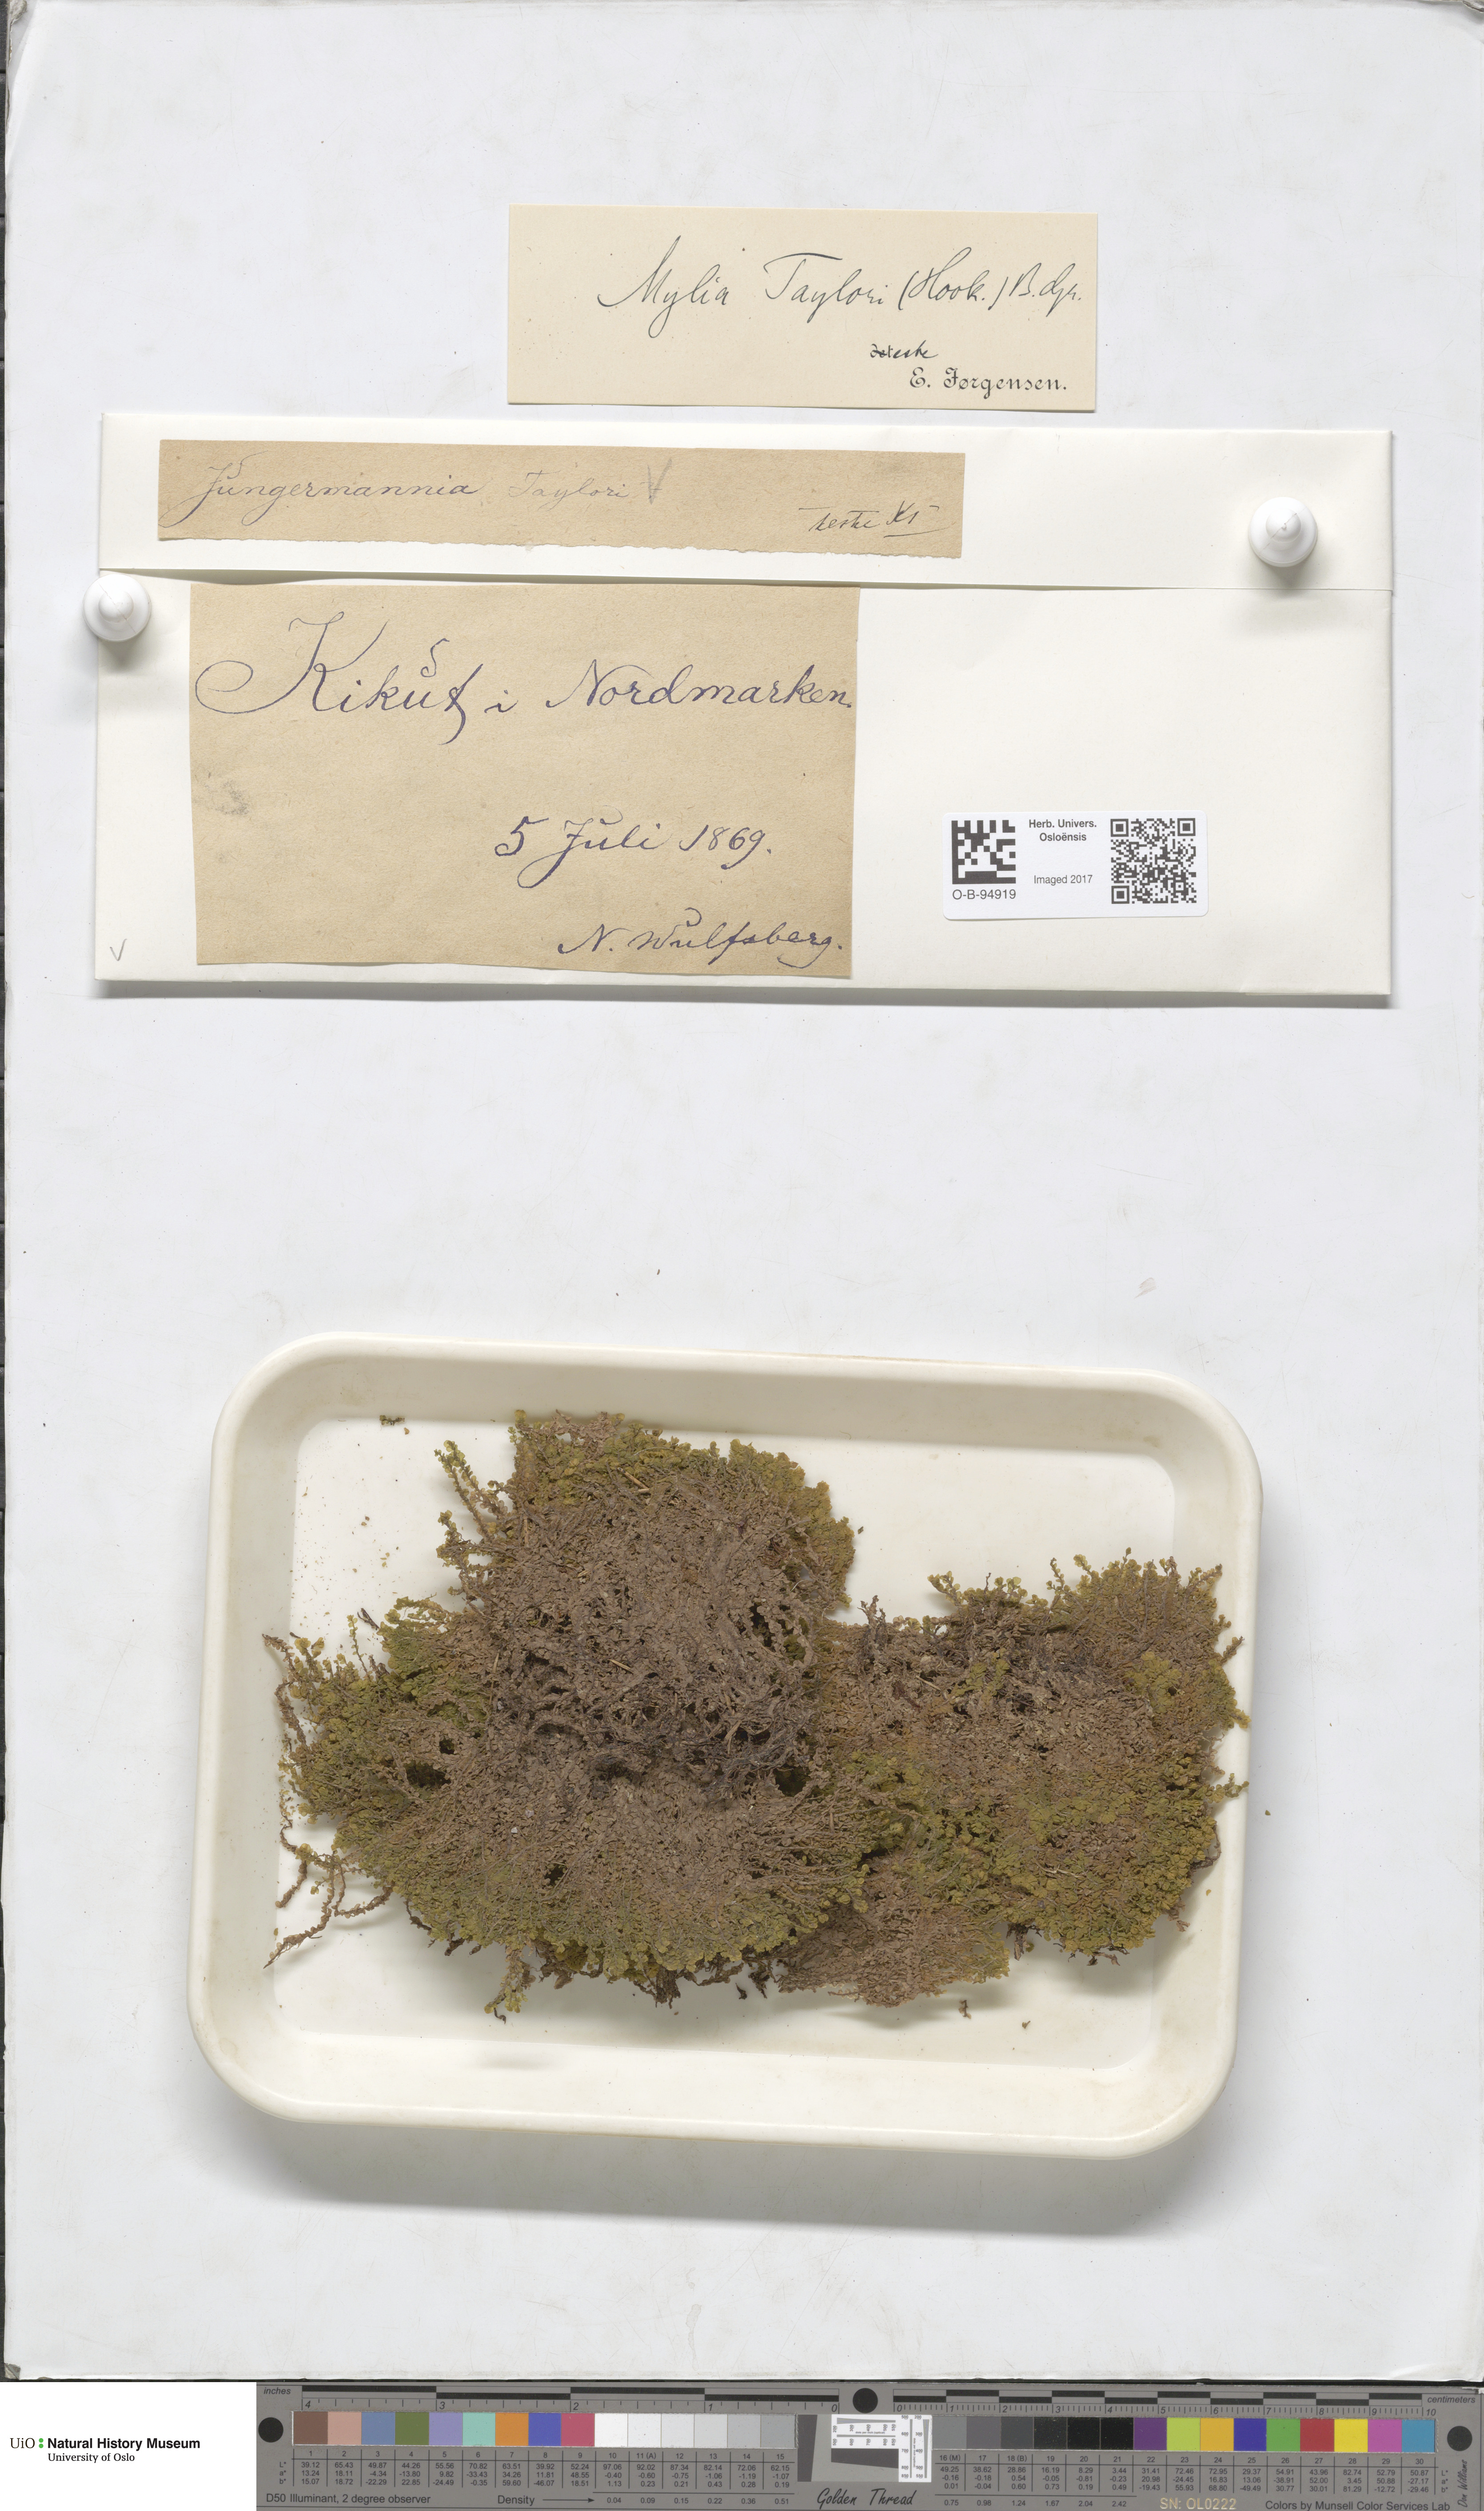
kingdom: Plantae
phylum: Marchantiophyta
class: Jungermanniopsida
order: Jungermanniales
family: Myliaceae
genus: Mylia
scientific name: Mylia taylorii
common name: Taylor s flapwort
